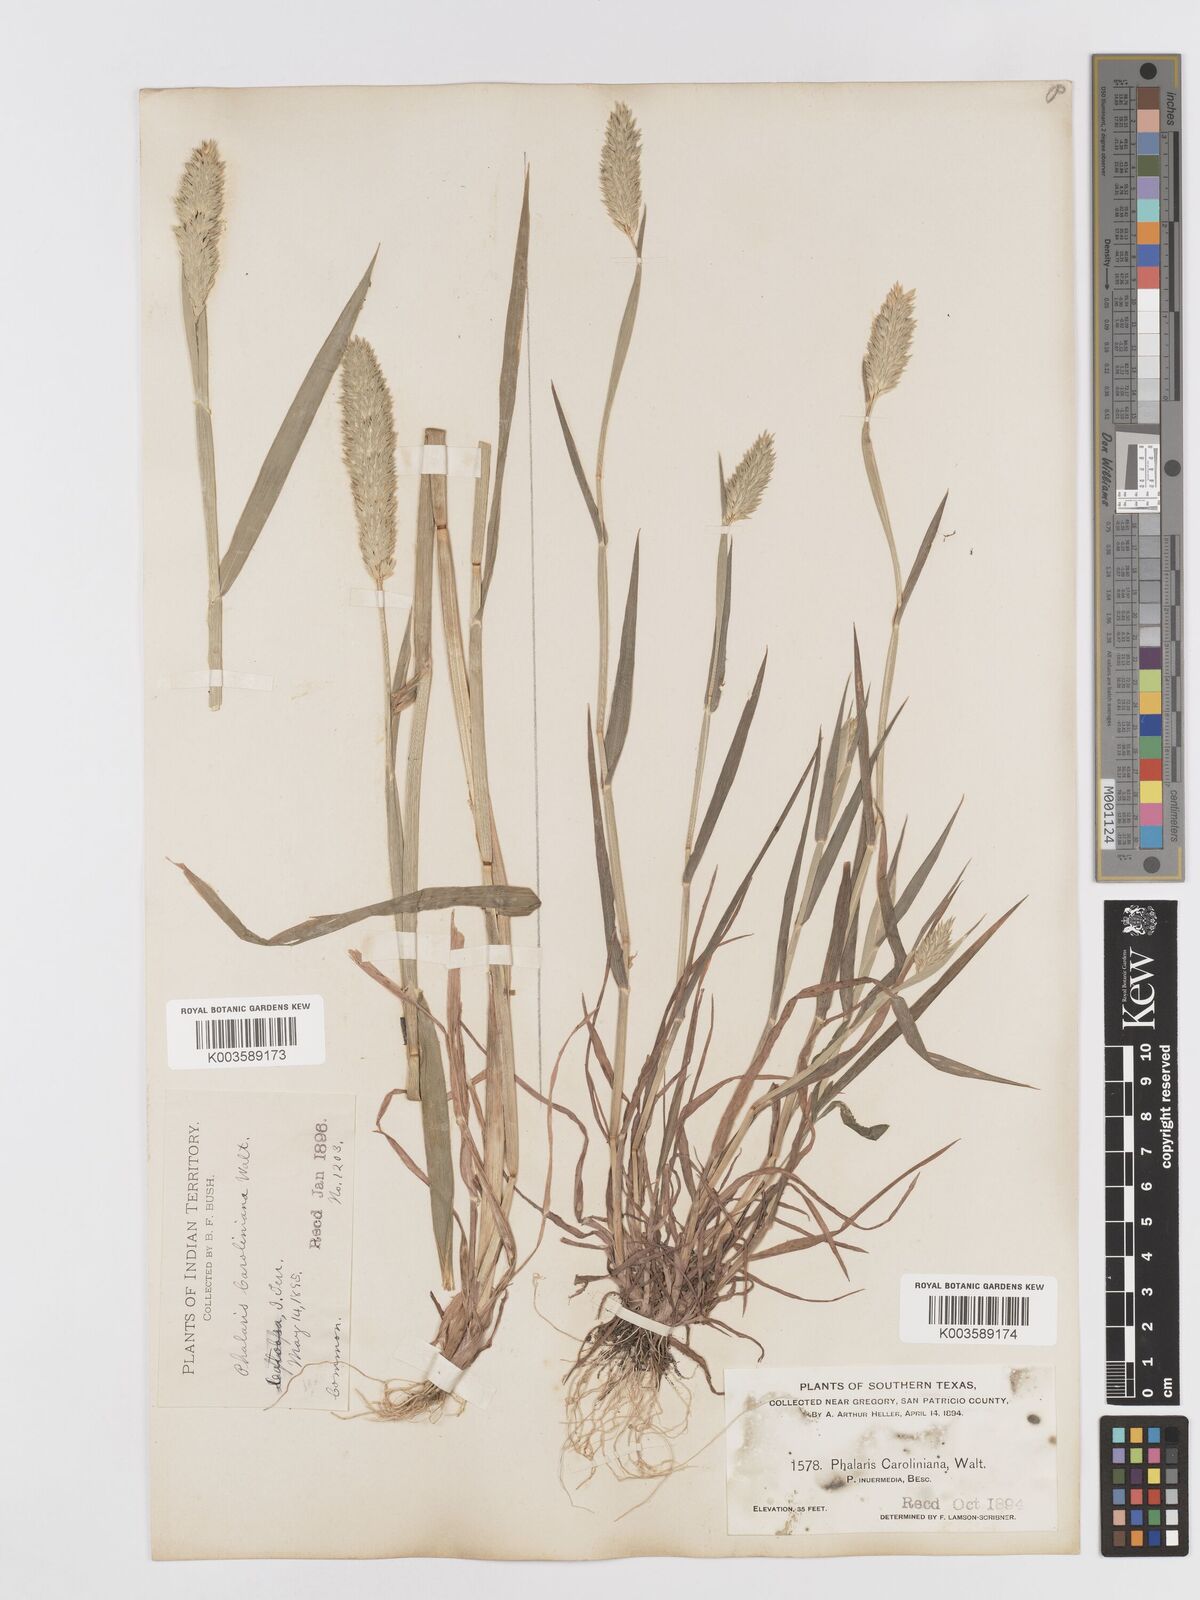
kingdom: Plantae
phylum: Tracheophyta
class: Liliopsida
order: Poales
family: Poaceae
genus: Phalaris
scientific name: Phalaris caroliniana
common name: May grass
